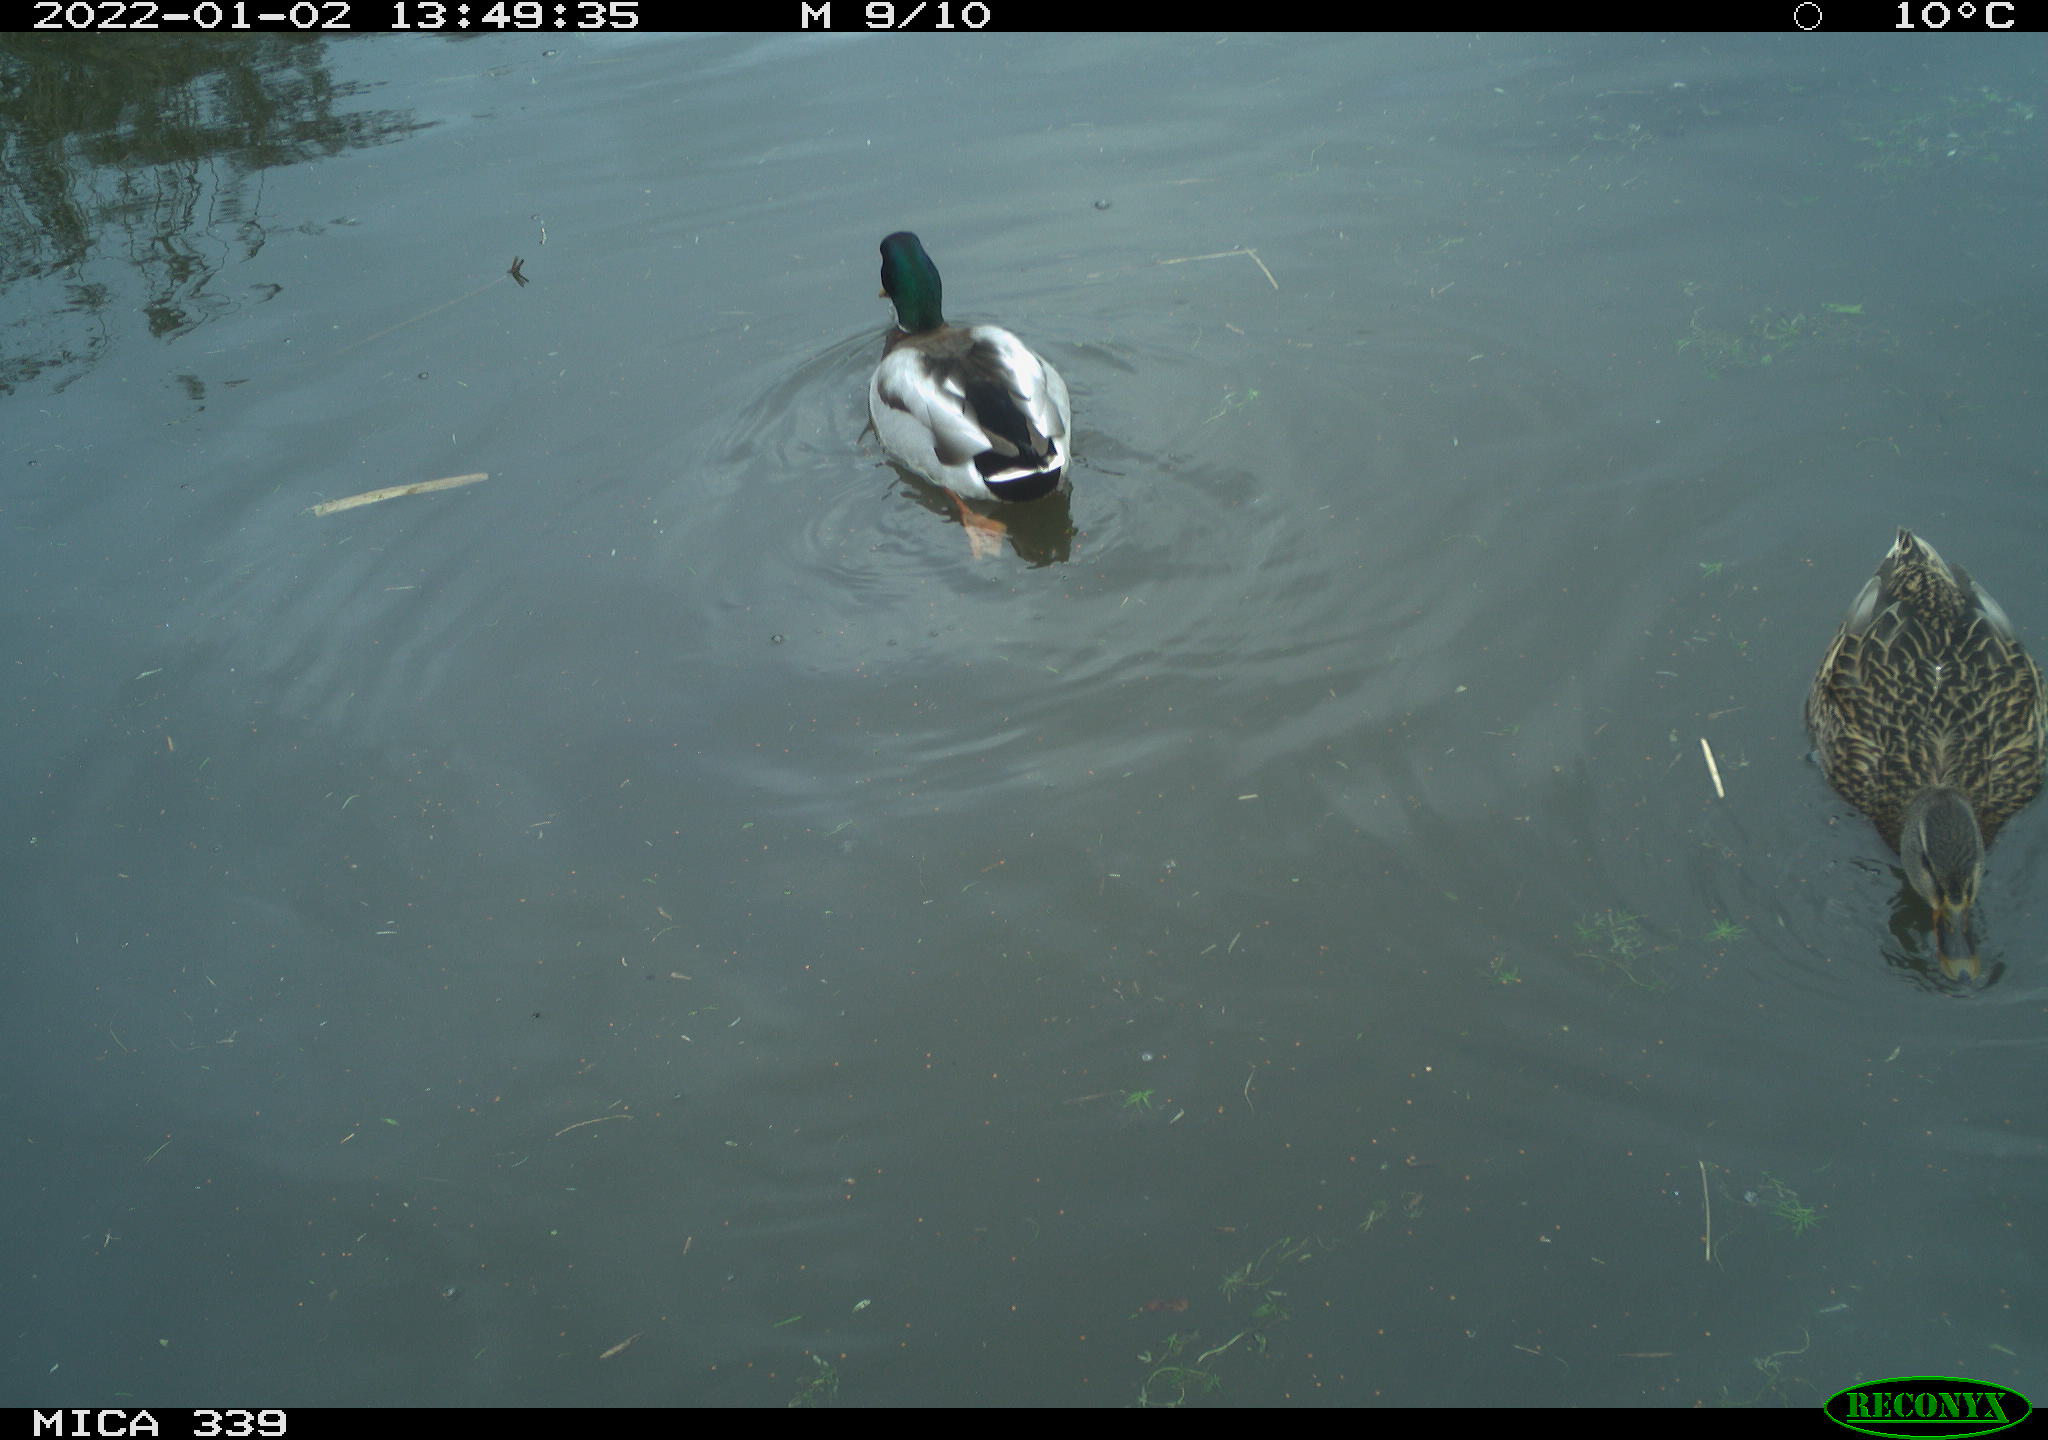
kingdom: Animalia
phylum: Chordata
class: Aves
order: Anseriformes
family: Anatidae
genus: Anas
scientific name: Anas platyrhynchos
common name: Mallard
